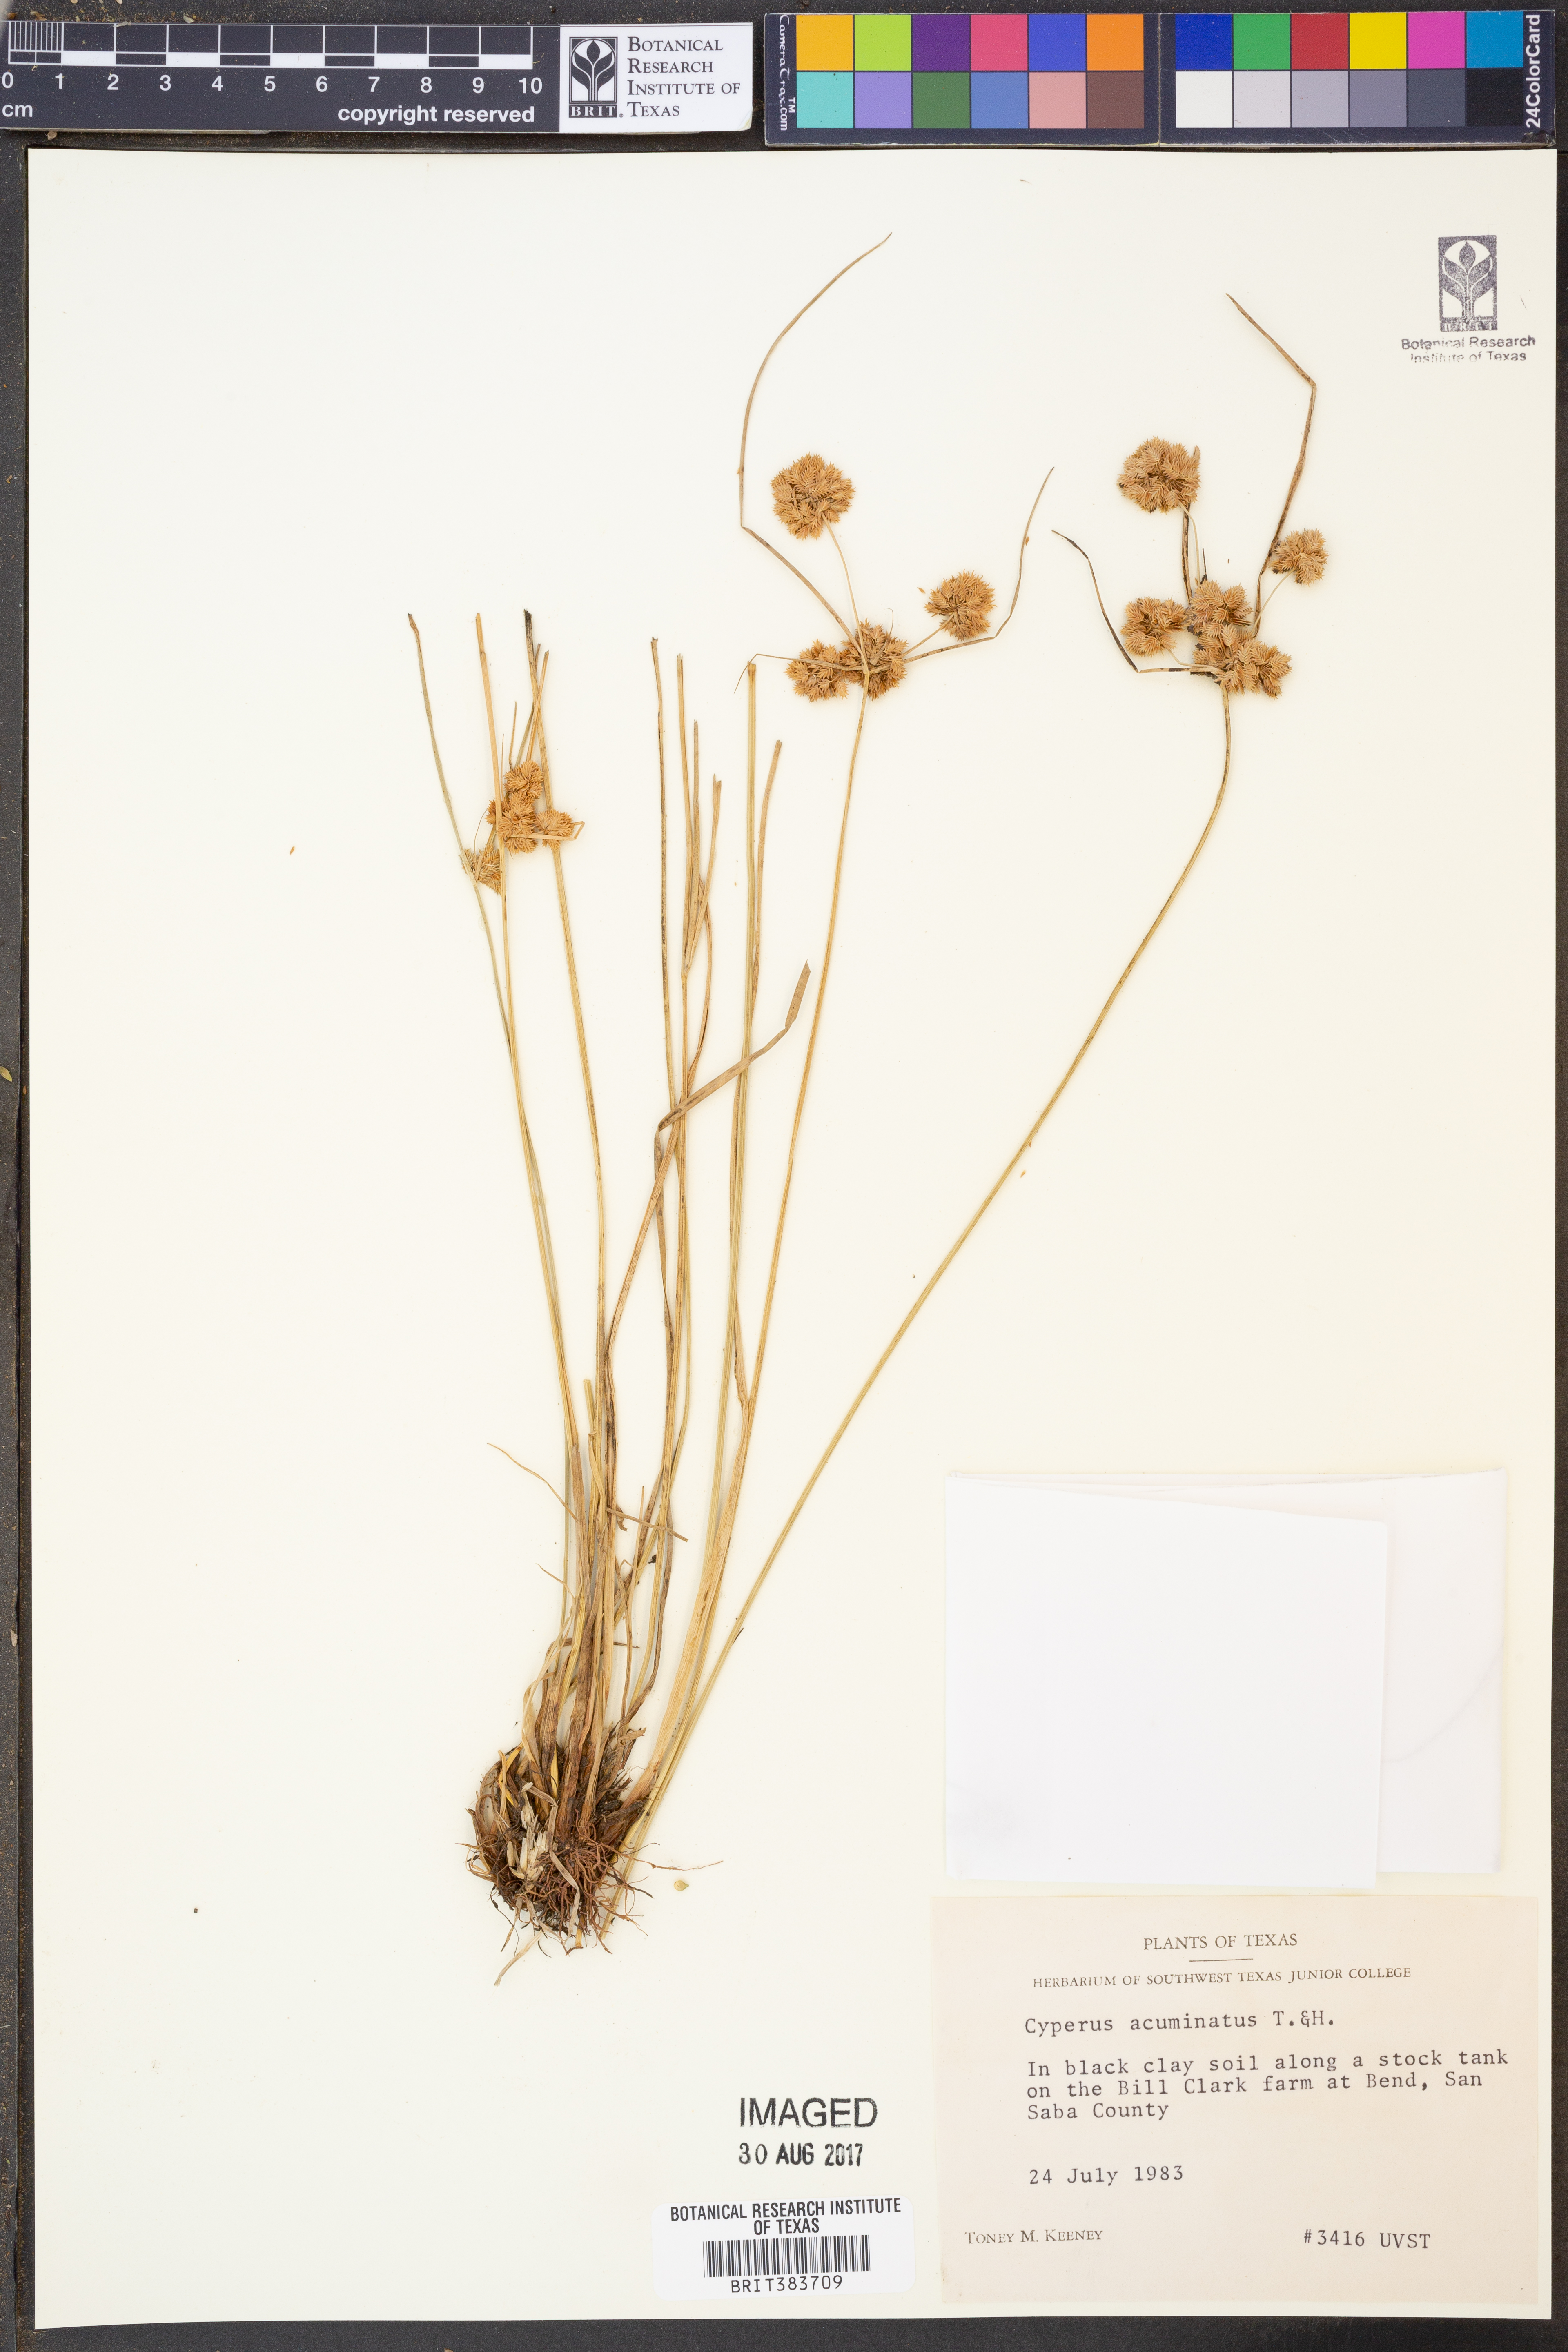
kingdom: Plantae
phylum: Tracheophyta
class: Liliopsida
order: Poales
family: Cyperaceae
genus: Cyperus
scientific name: Cyperus acuminatus
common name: Short-pointed cyperus
